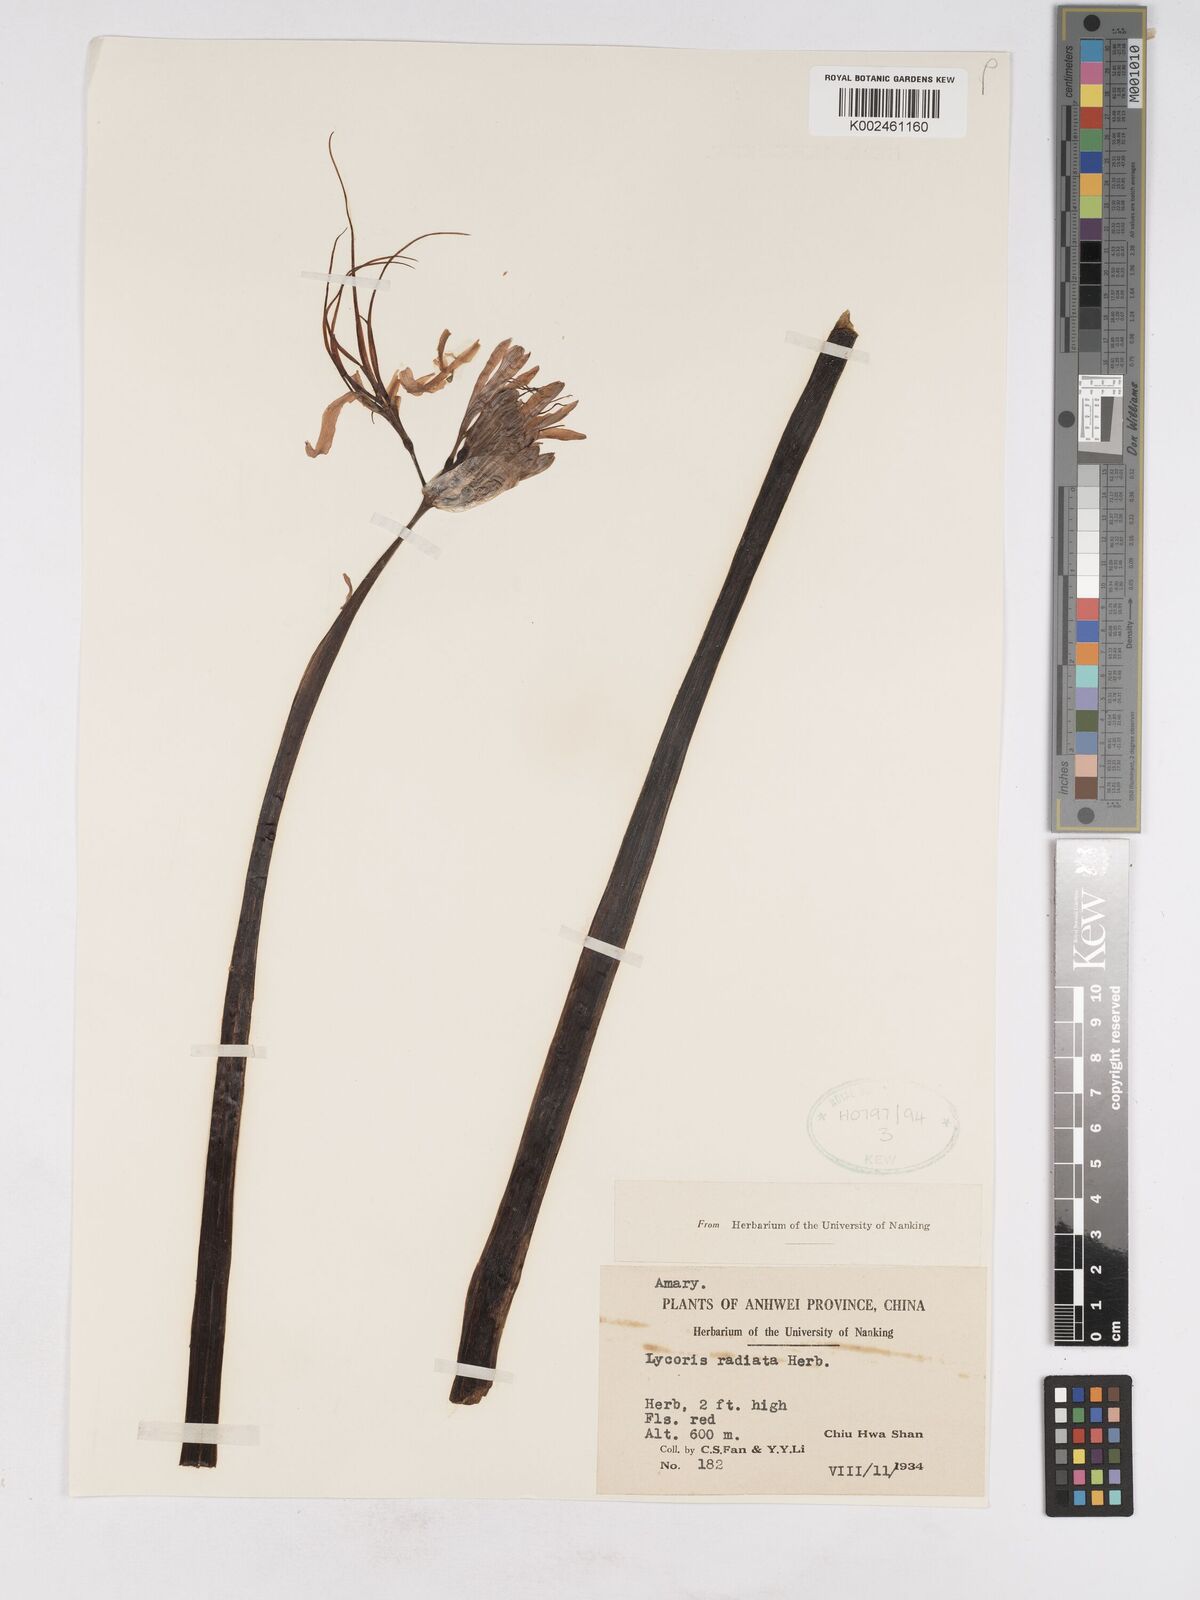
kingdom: Plantae
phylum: Tracheophyta
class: Liliopsida
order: Asparagales
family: Amaryllidaceae
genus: Lycoris
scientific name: Lycoris radiata
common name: Red spider lily
